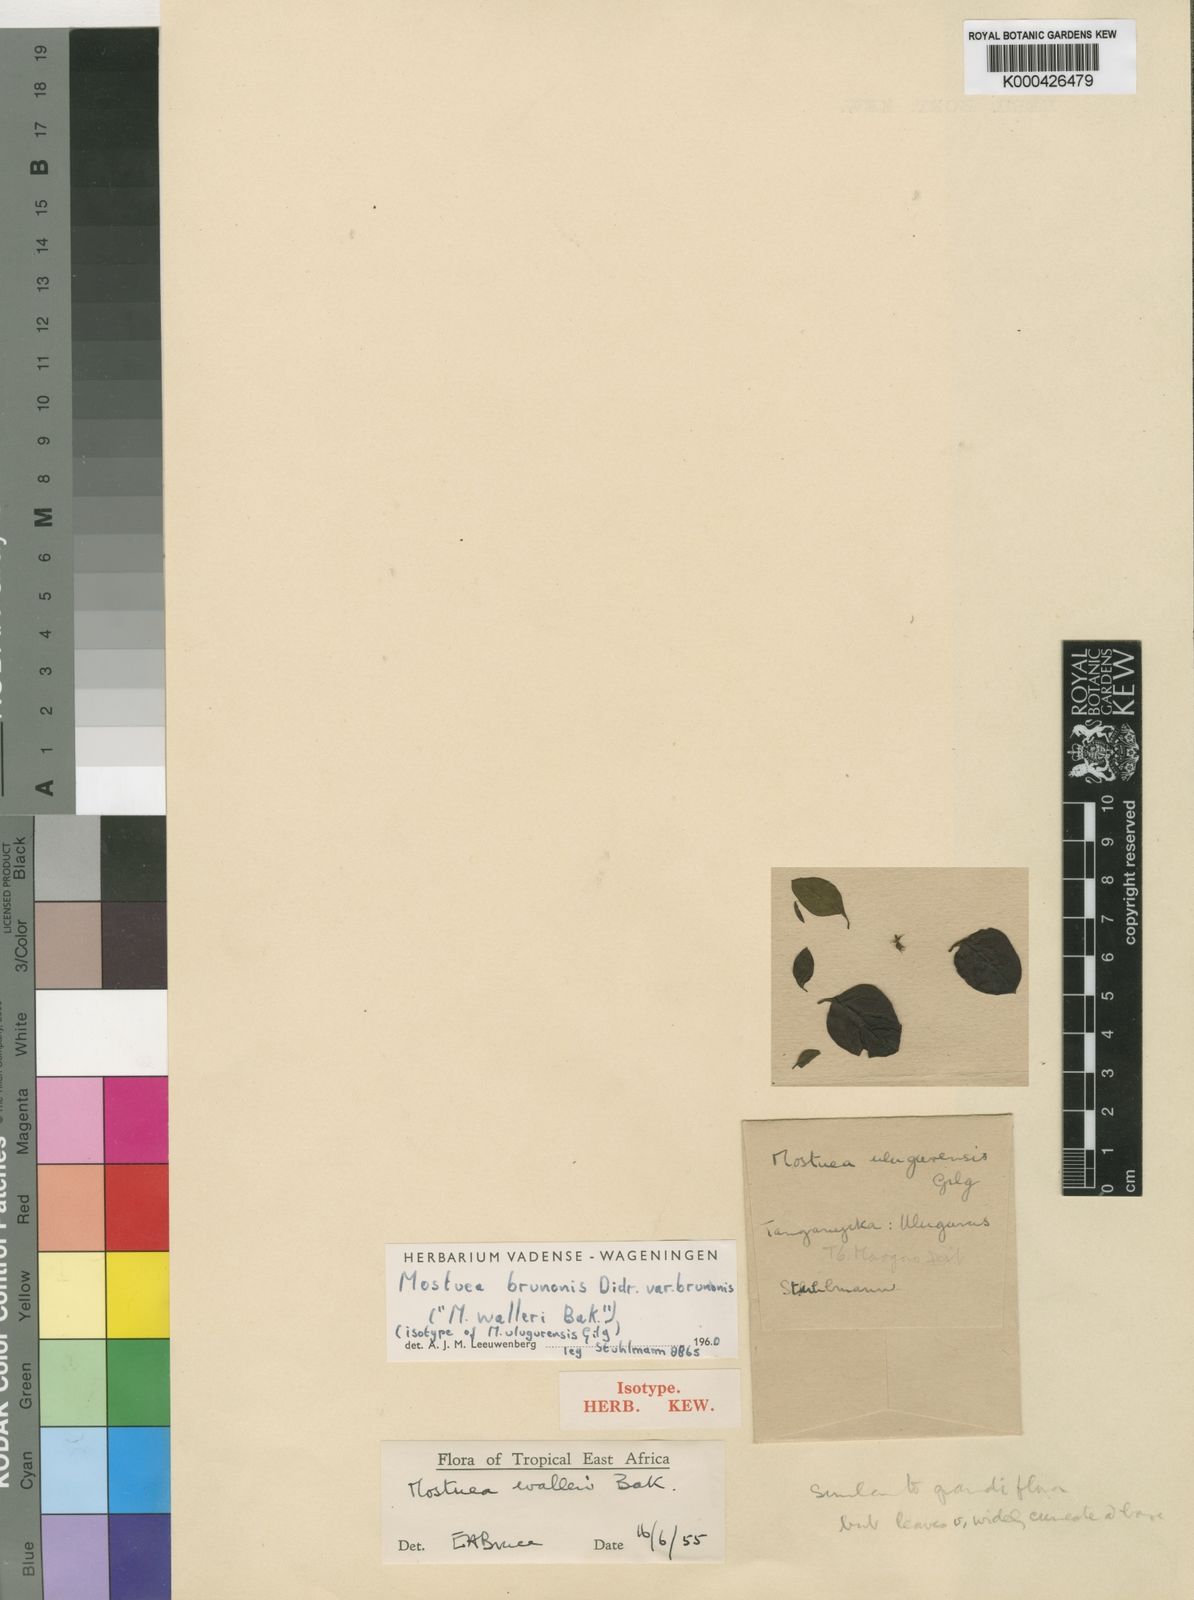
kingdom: Plantae
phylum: Tracheophyta
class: Magnoliopsida
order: Gentianales
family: Gelsemiaceae
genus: Mostuea
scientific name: Mostuea brunonis
